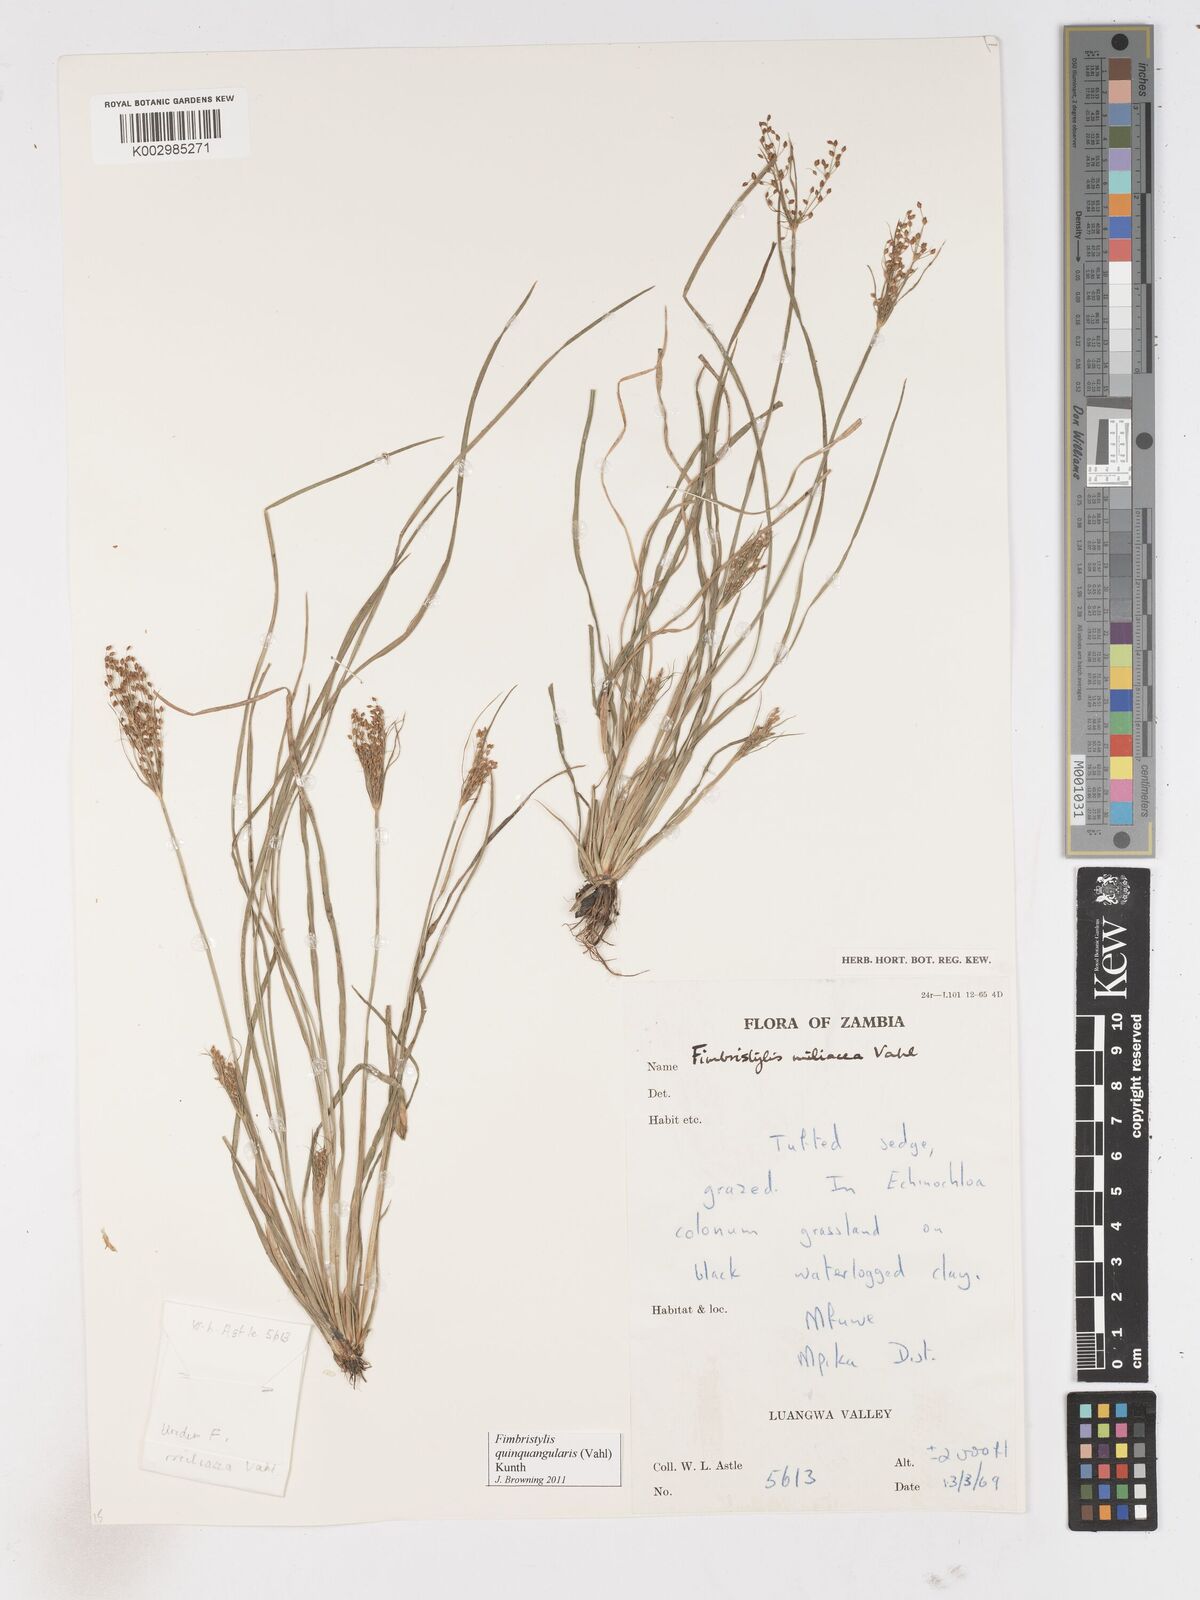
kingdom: Plantae
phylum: Tracheophyta
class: Liliopsida
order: Poales
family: Cyperaceae
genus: Fimbristylis
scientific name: Fimbristylis quinquangularis
